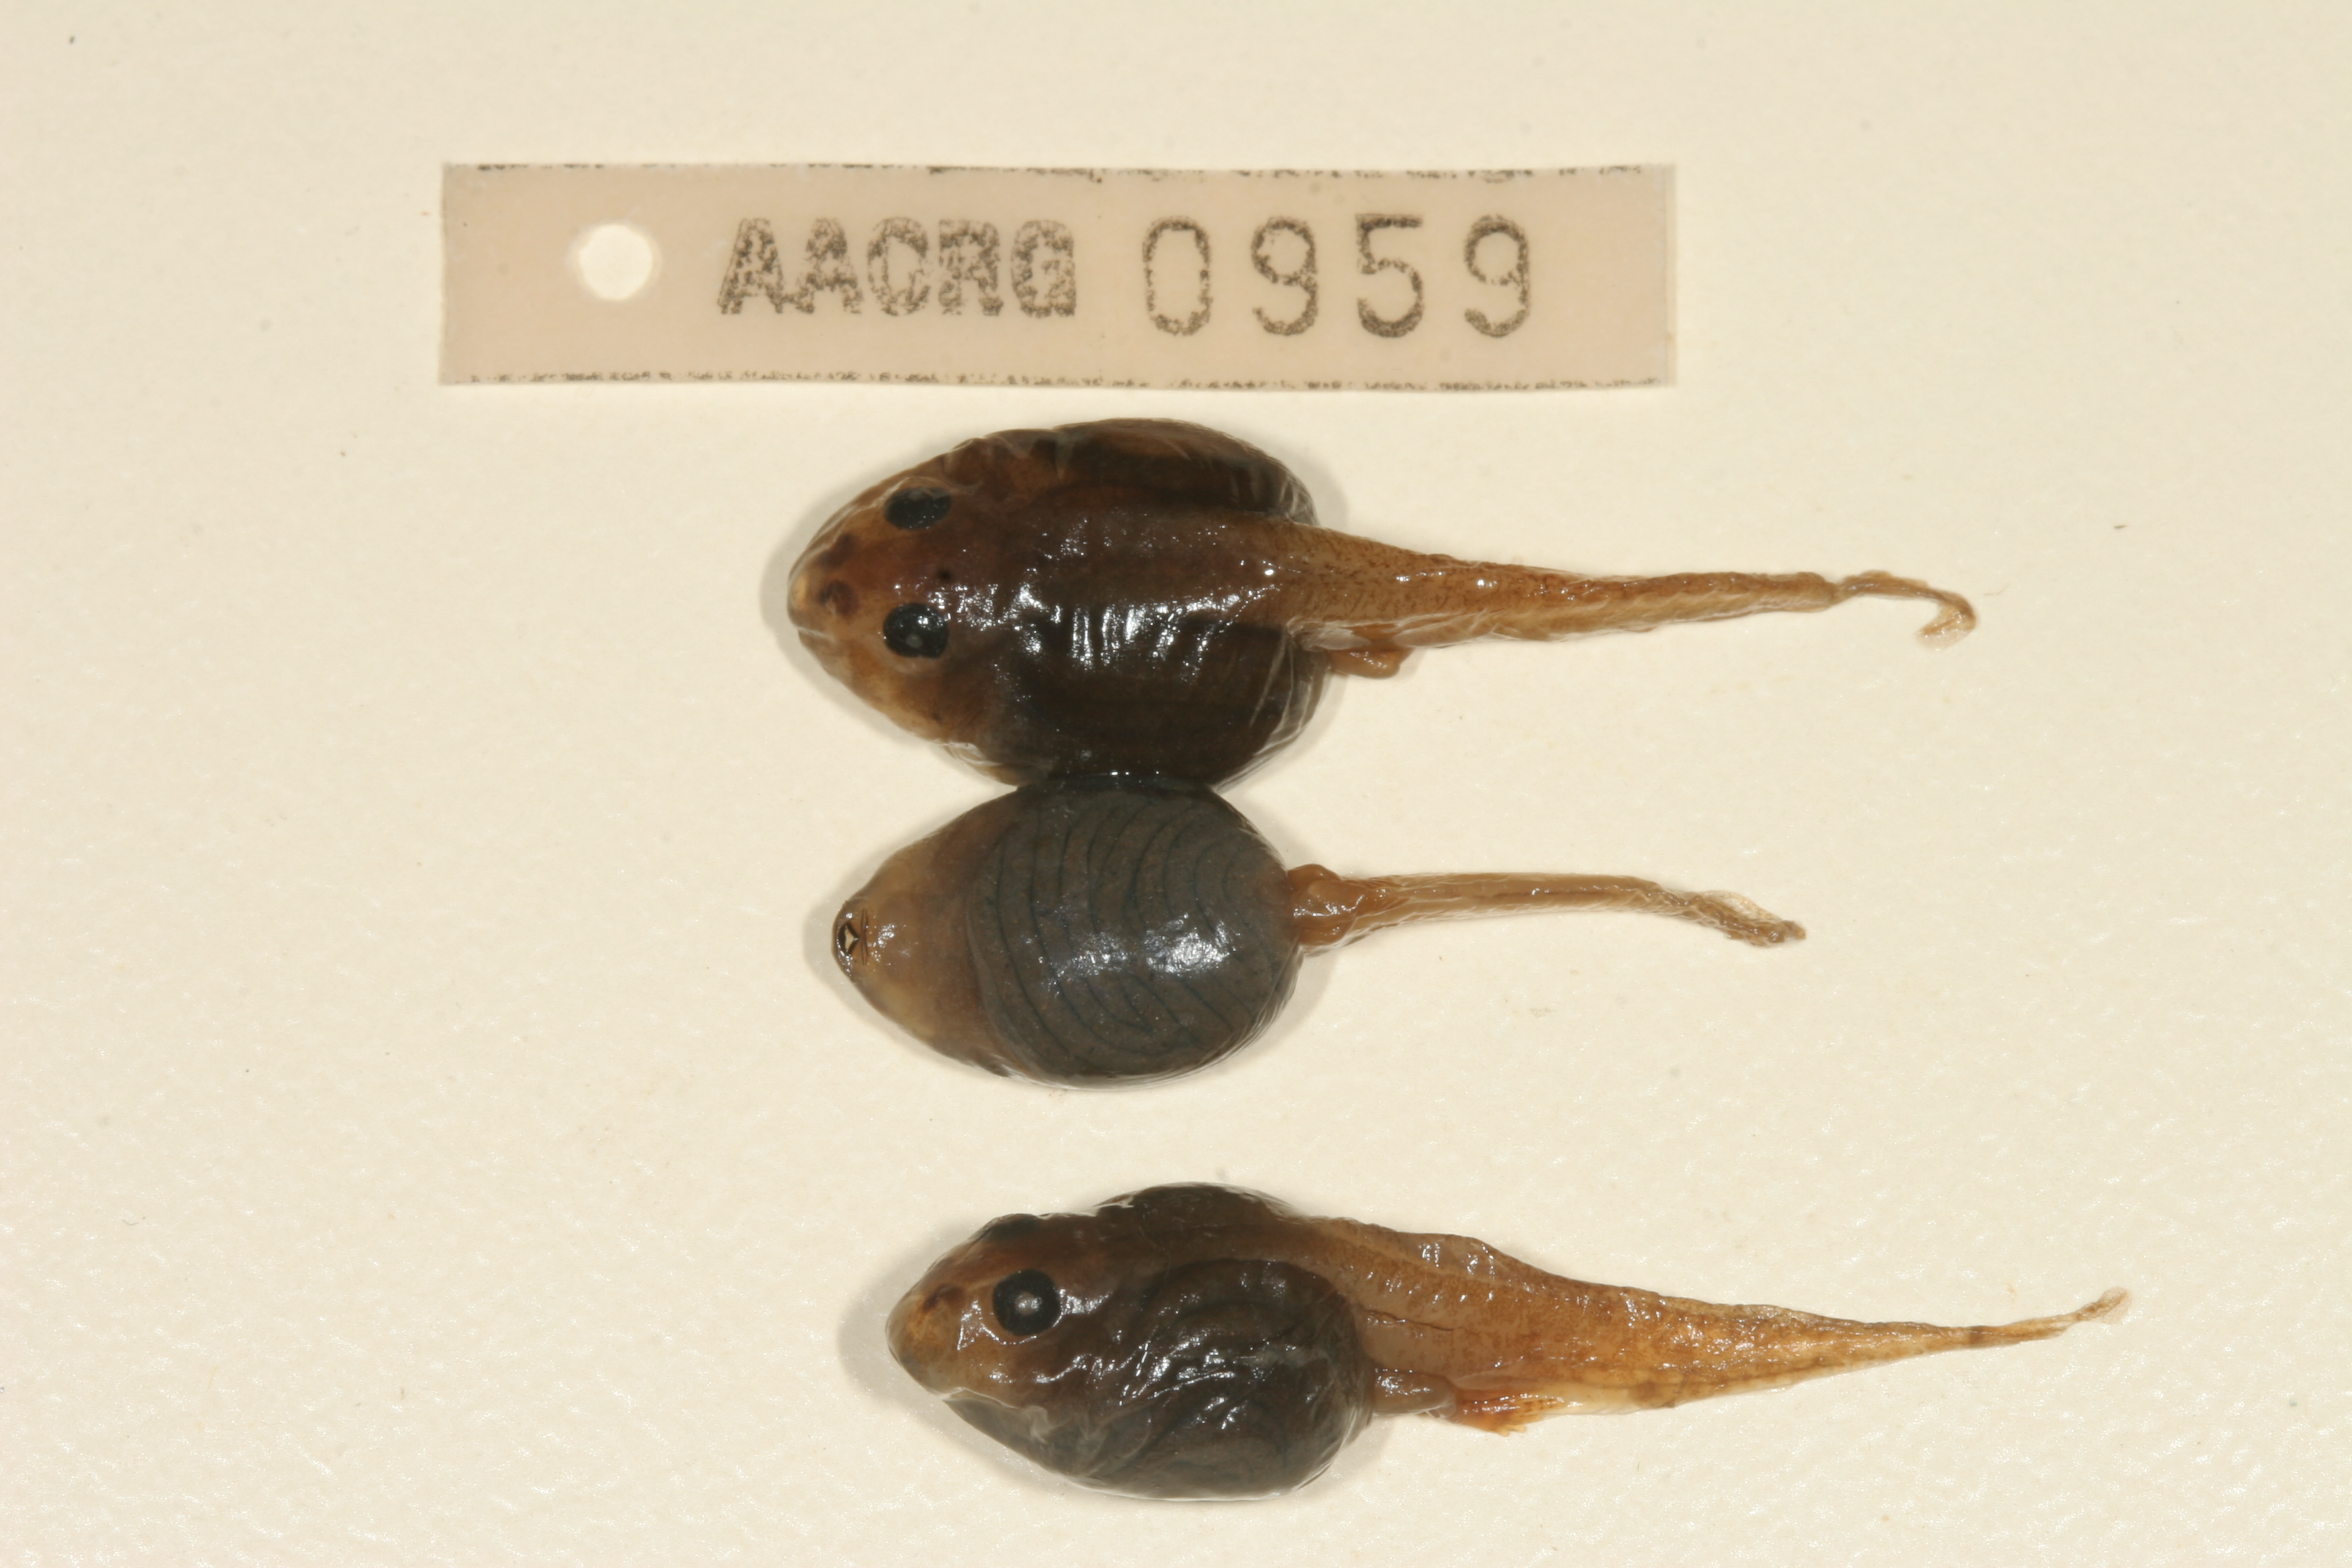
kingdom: Animalia
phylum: Chordata
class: Amphibia
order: Anura
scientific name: Anura
